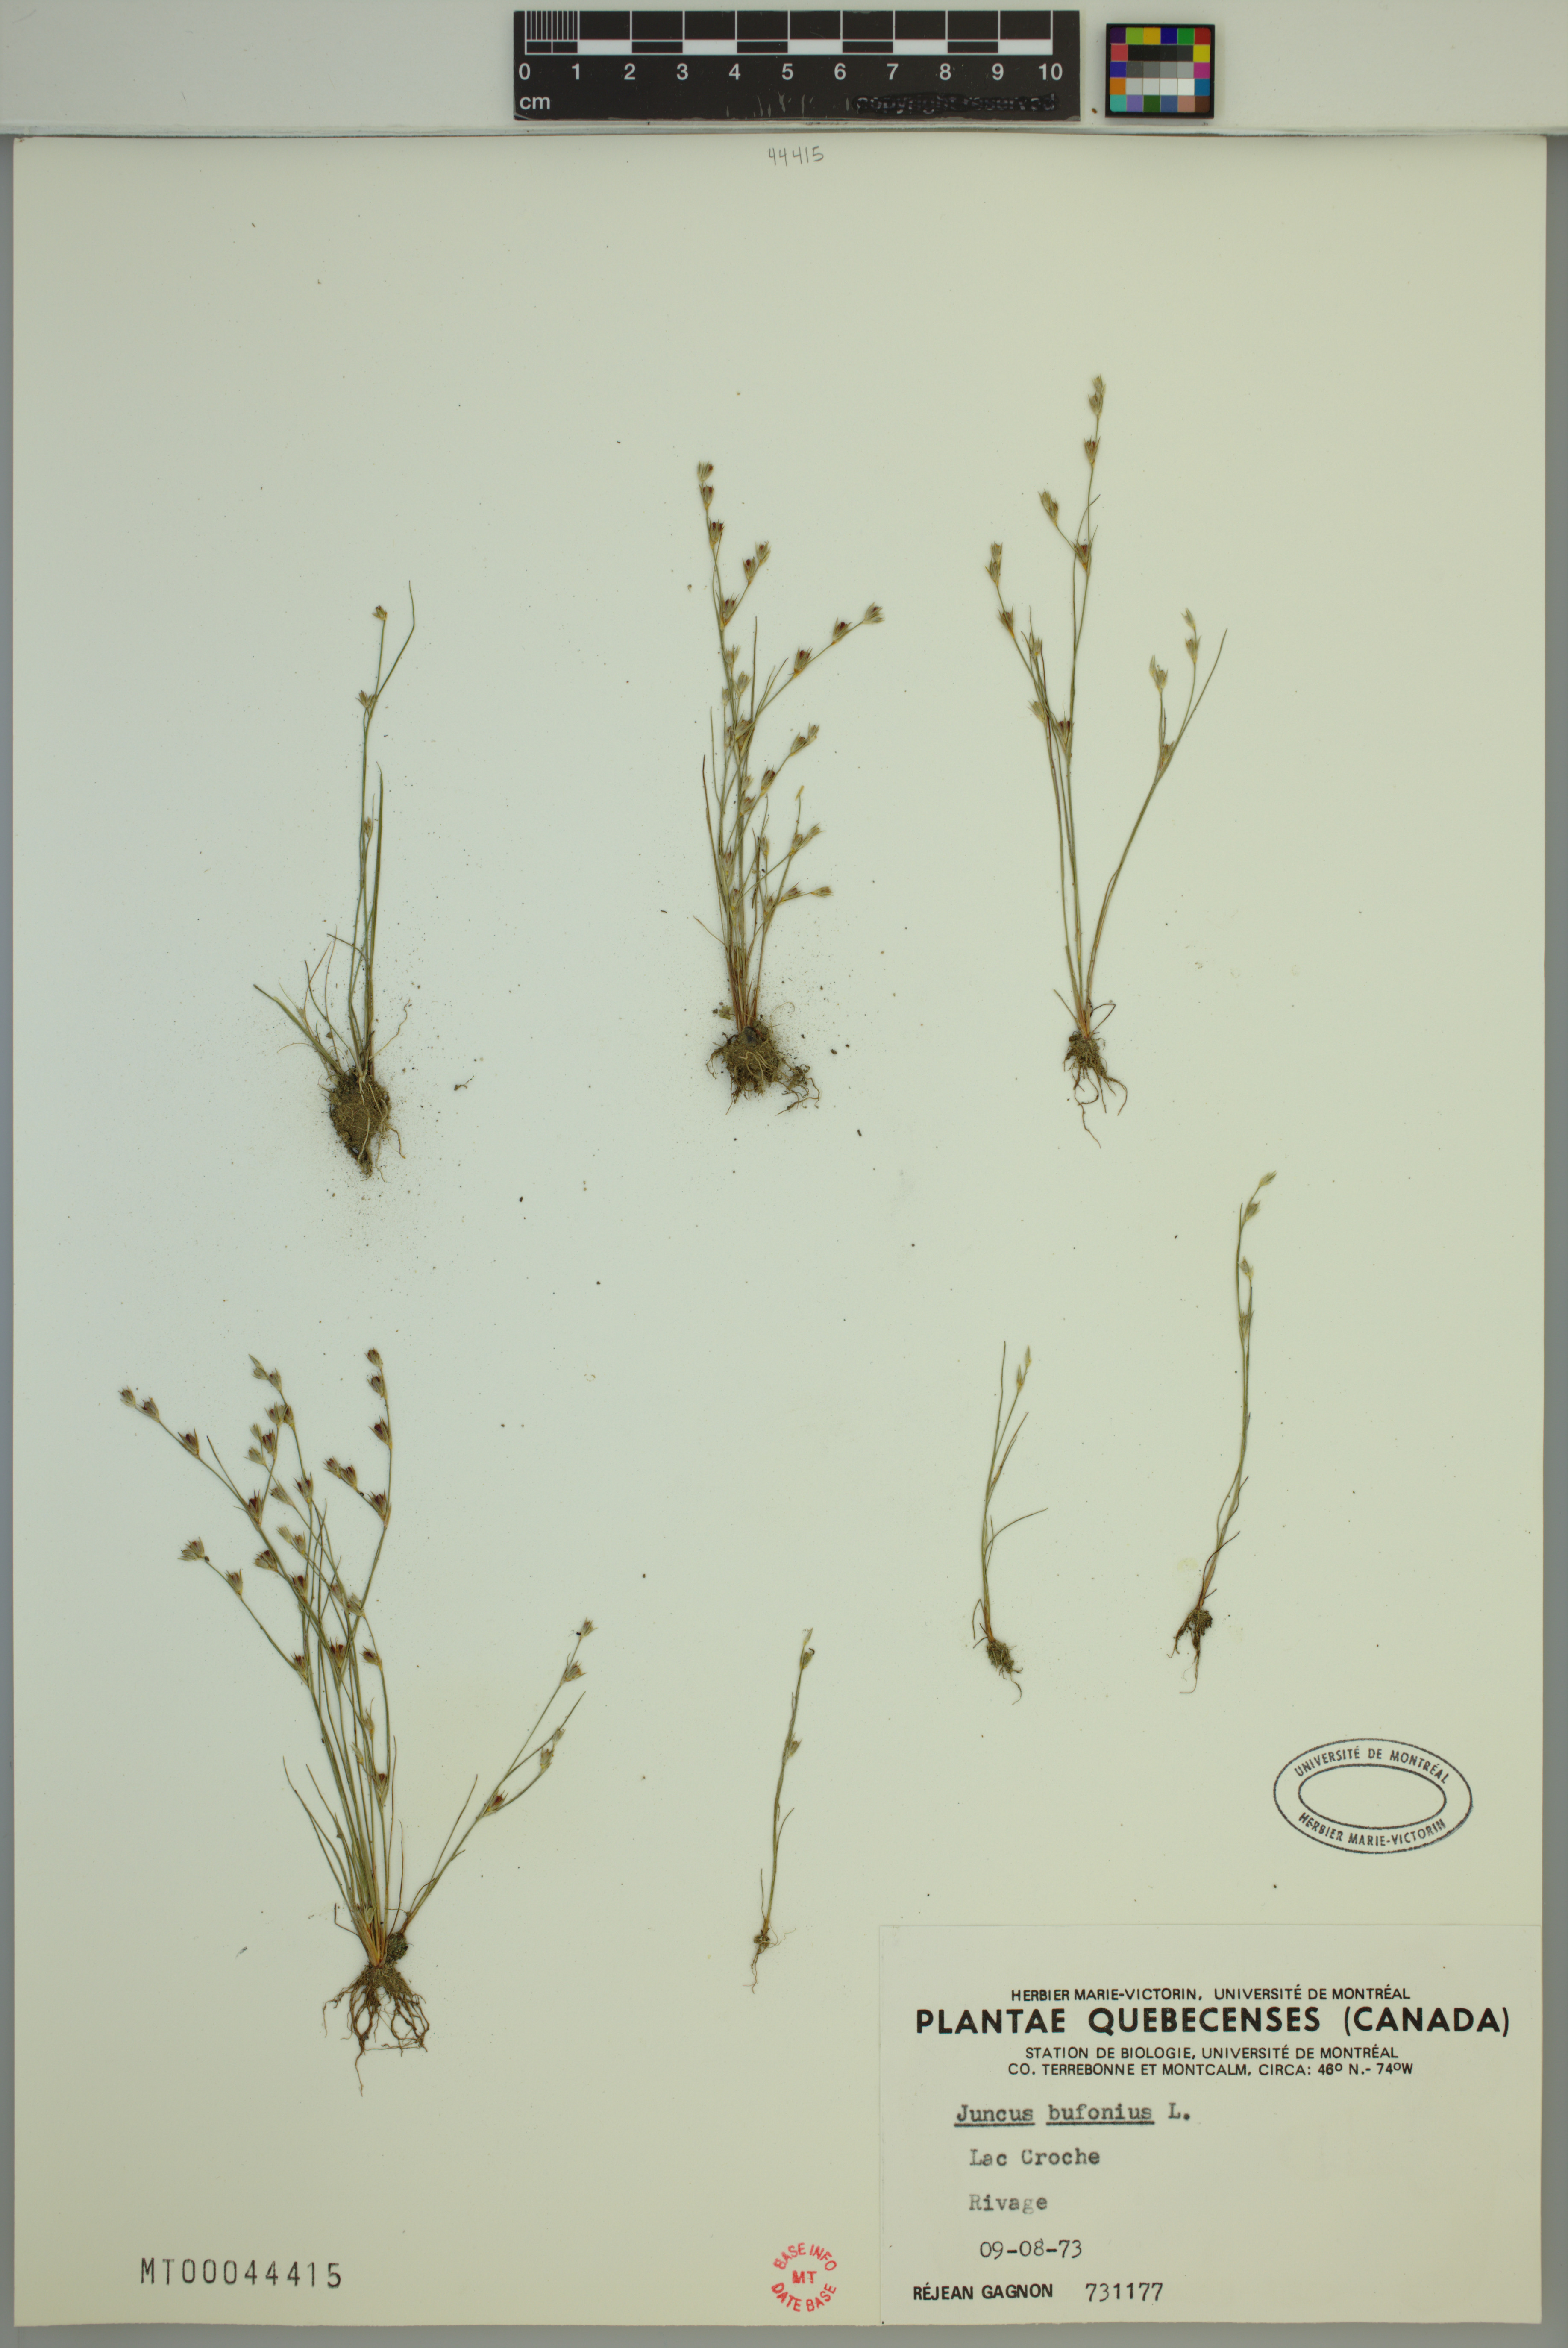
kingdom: Plantae
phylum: Tracheophyta
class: Liliopsida
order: Poales
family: Juncaceae
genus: Juncus
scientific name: Juncus bufonius
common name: Toad rush
